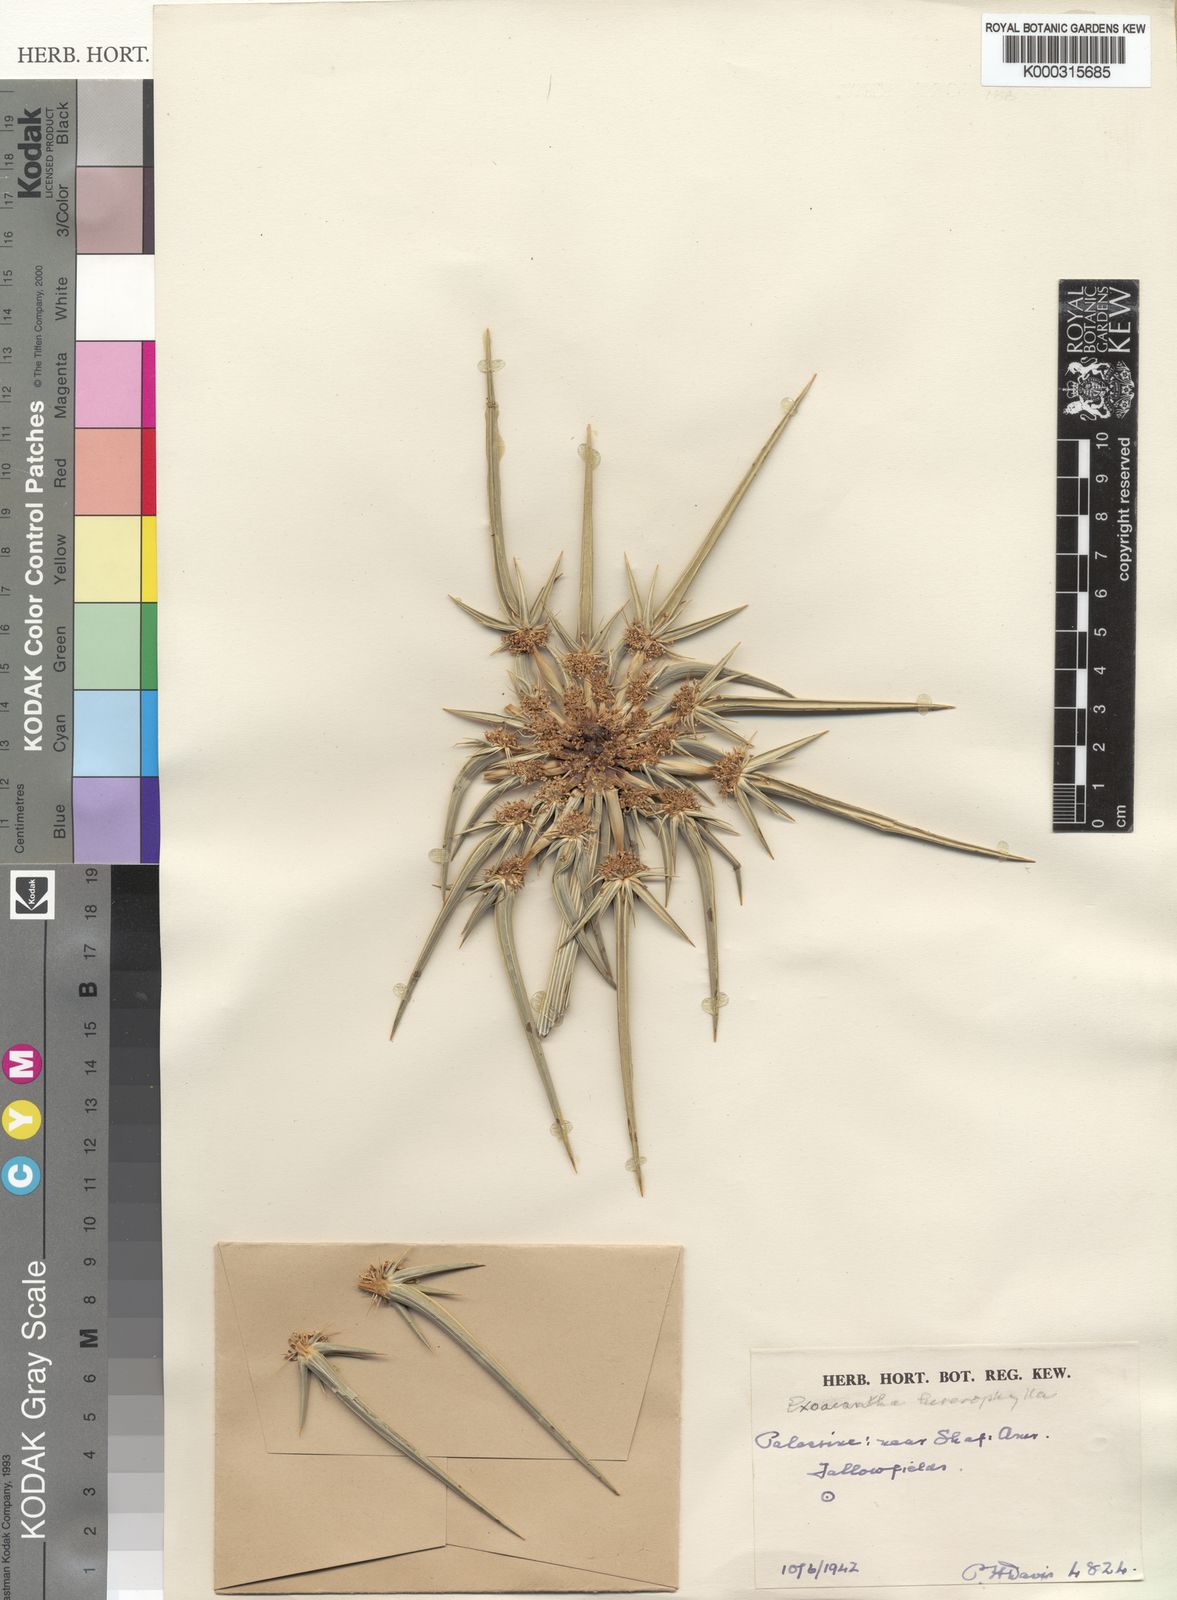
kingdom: Plantae
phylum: Tracheophyta
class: Magnoliopsida
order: Apiales
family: Apiaceae
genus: Exoacantha
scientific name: Exoacantha heterophylla
